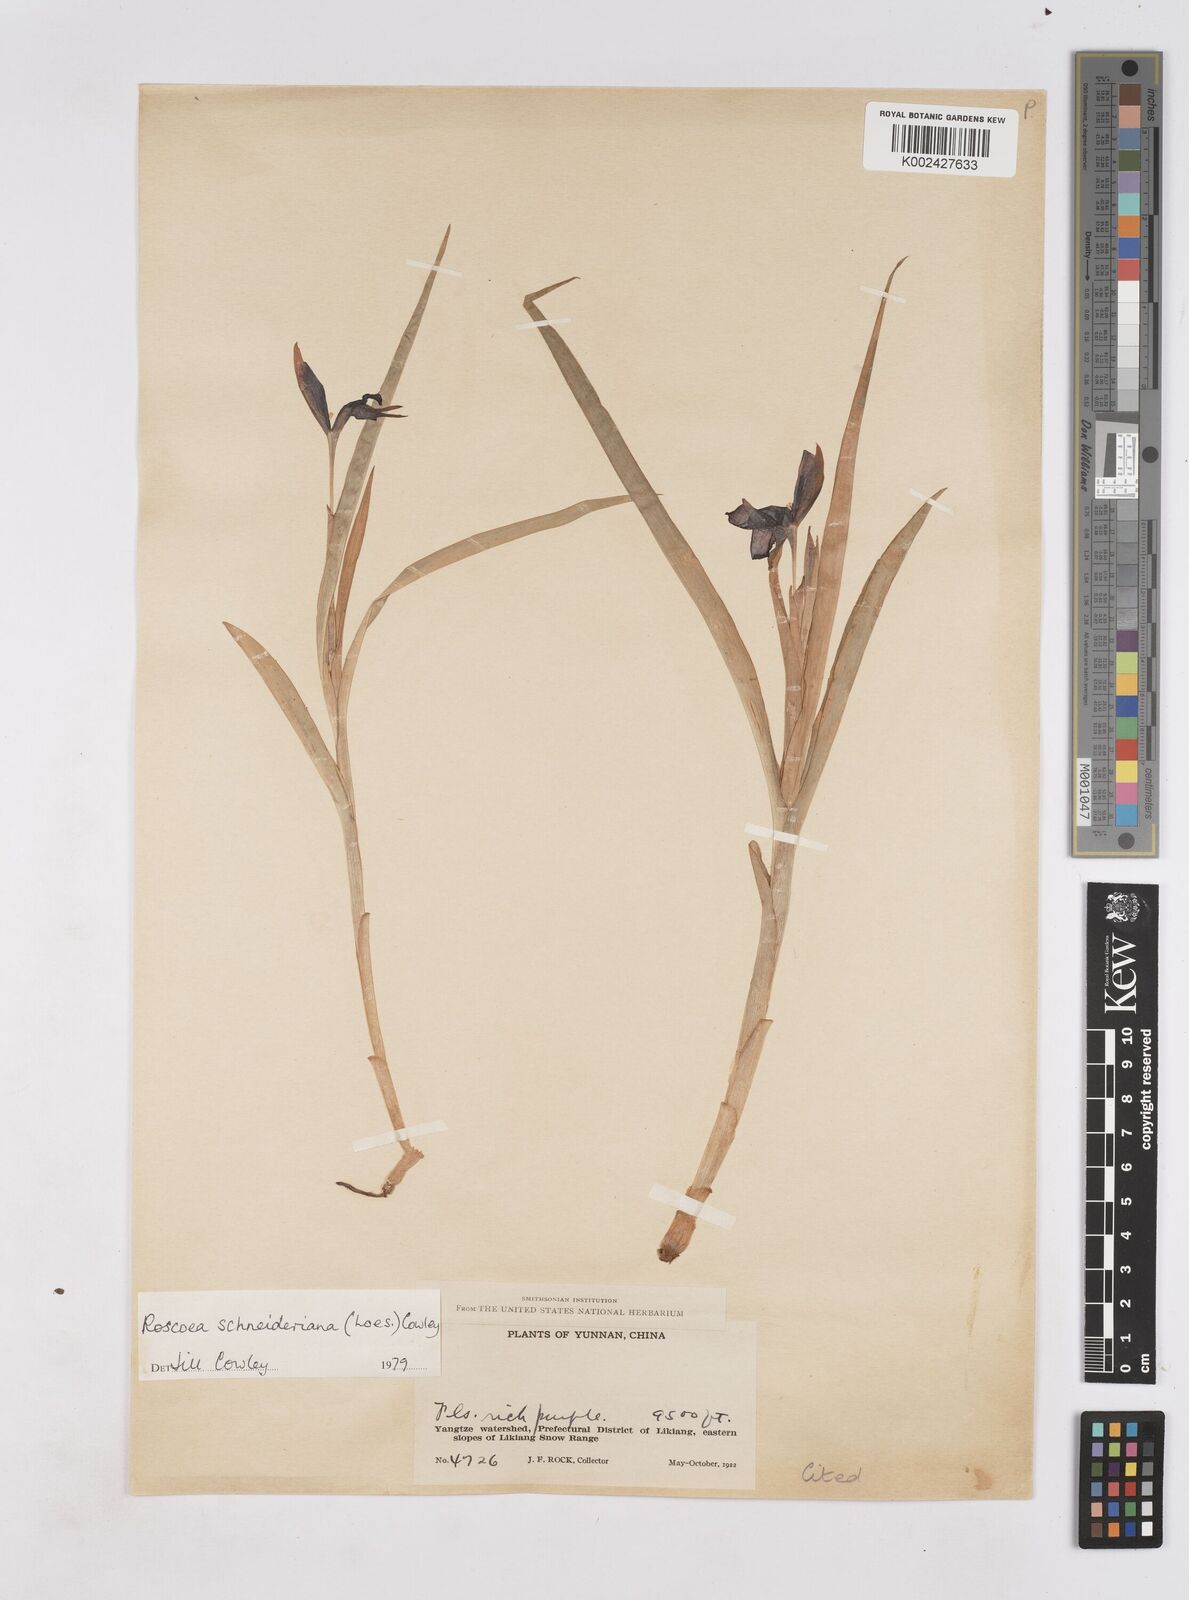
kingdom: Plantae
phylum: Tracheophyta
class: Liliopsida
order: Zingiberales
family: Zingiberaceae
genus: Roscoea
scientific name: Roscoea schneideriana
